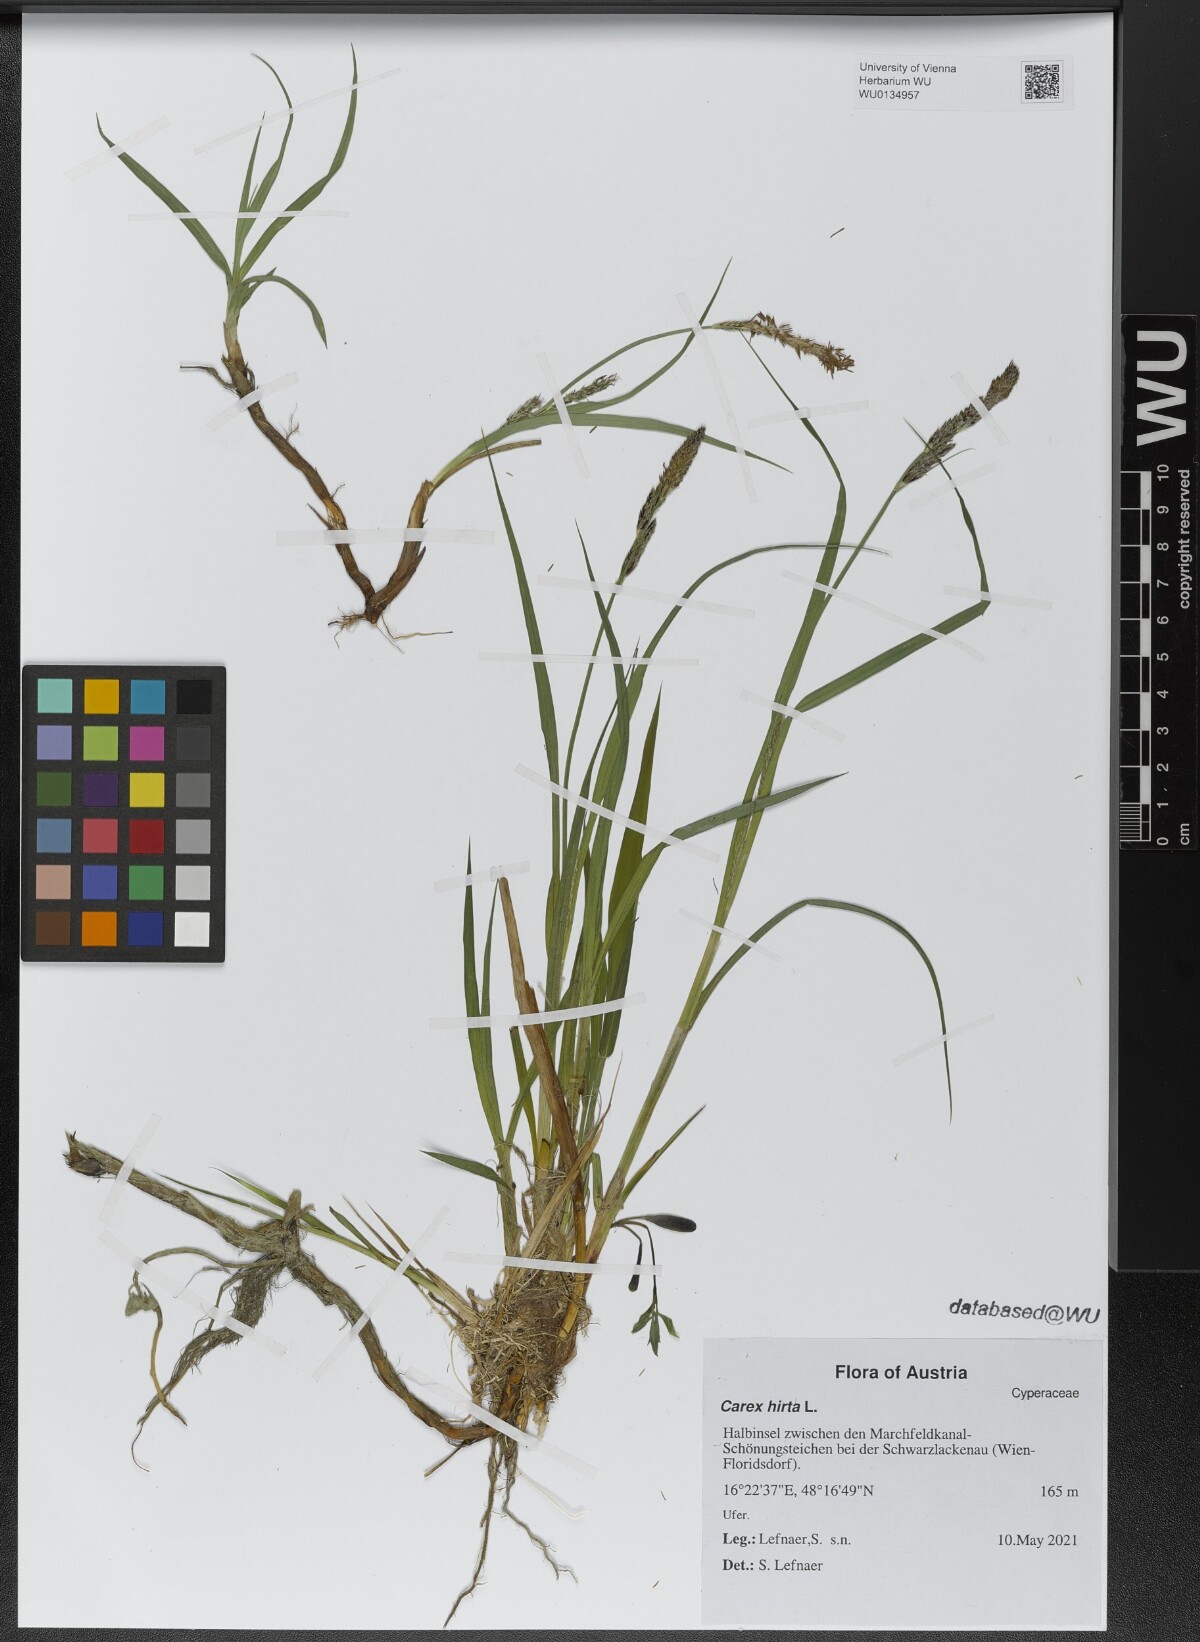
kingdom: Plantae
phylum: Tracheophyta
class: Liliopsida
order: Poales
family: Cyperaceae
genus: Carex
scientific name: Carex hirta
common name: Hairy sedge
